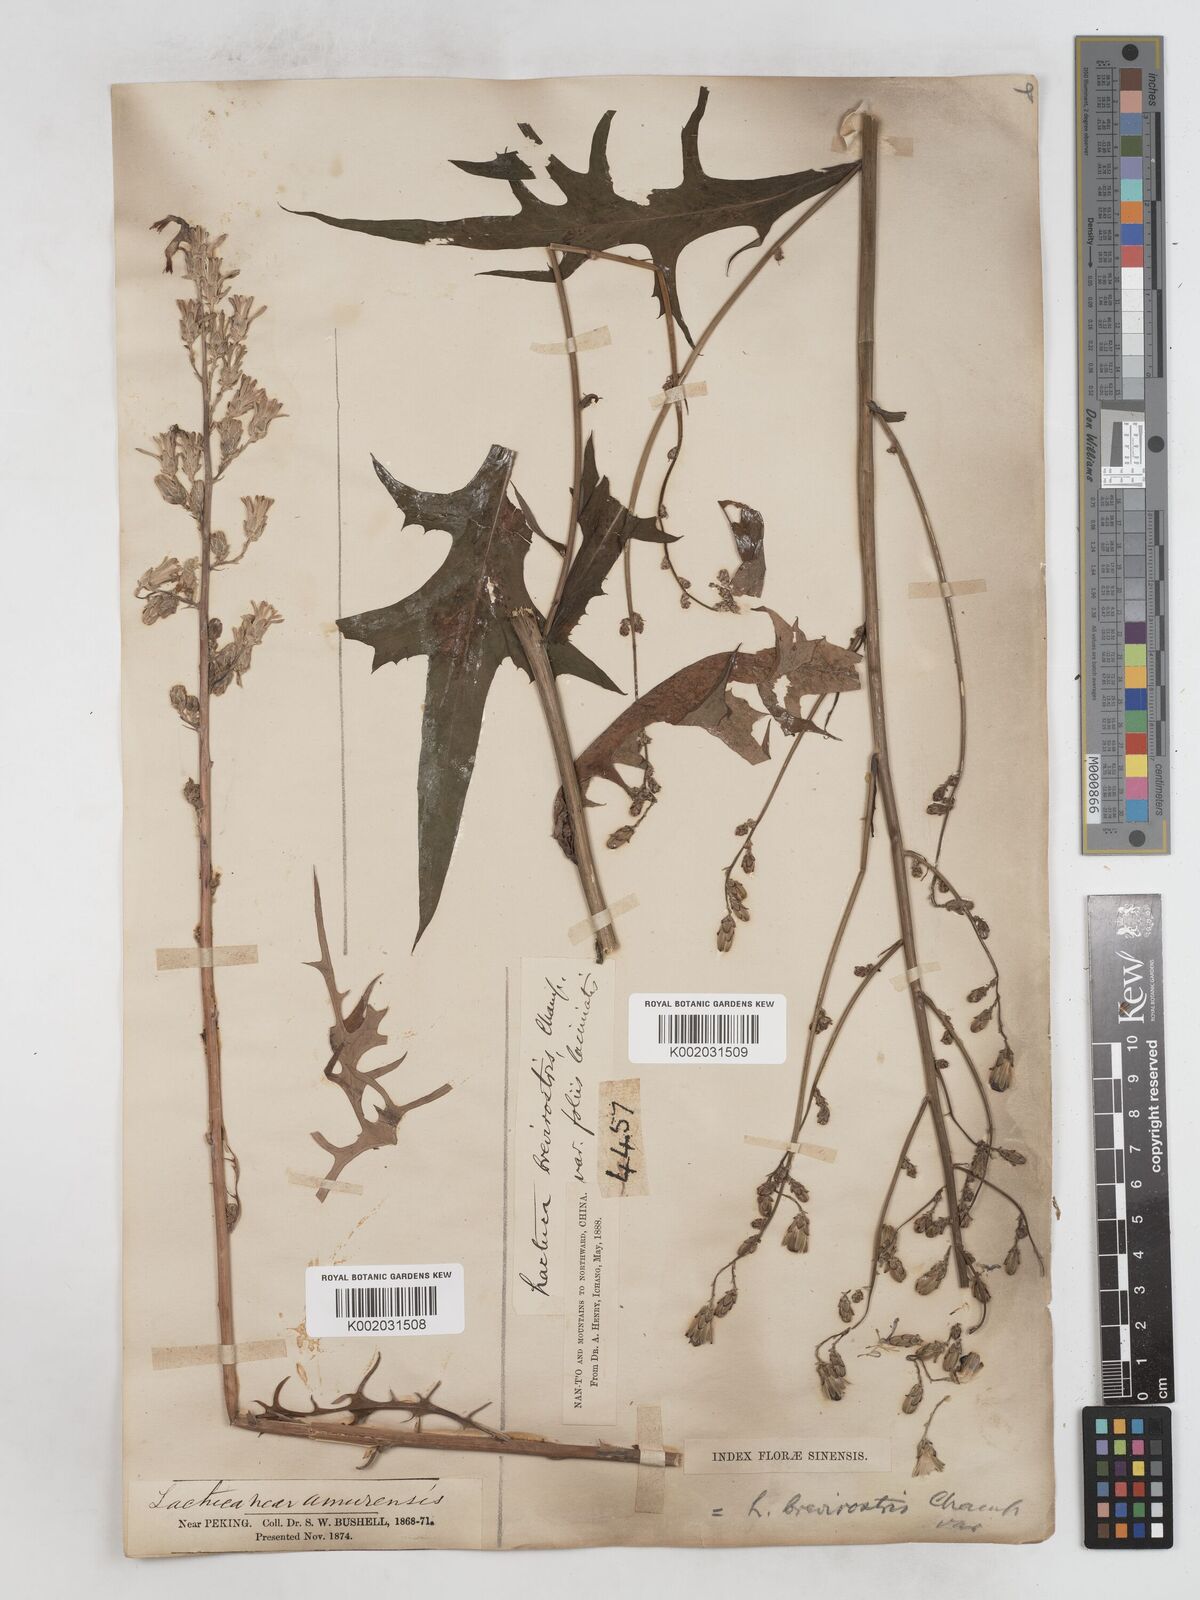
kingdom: Plantae
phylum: Tracheophyta
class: Magnoliopsida
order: Asterales
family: Asteraceae
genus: Lactuca
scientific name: Lactuca
